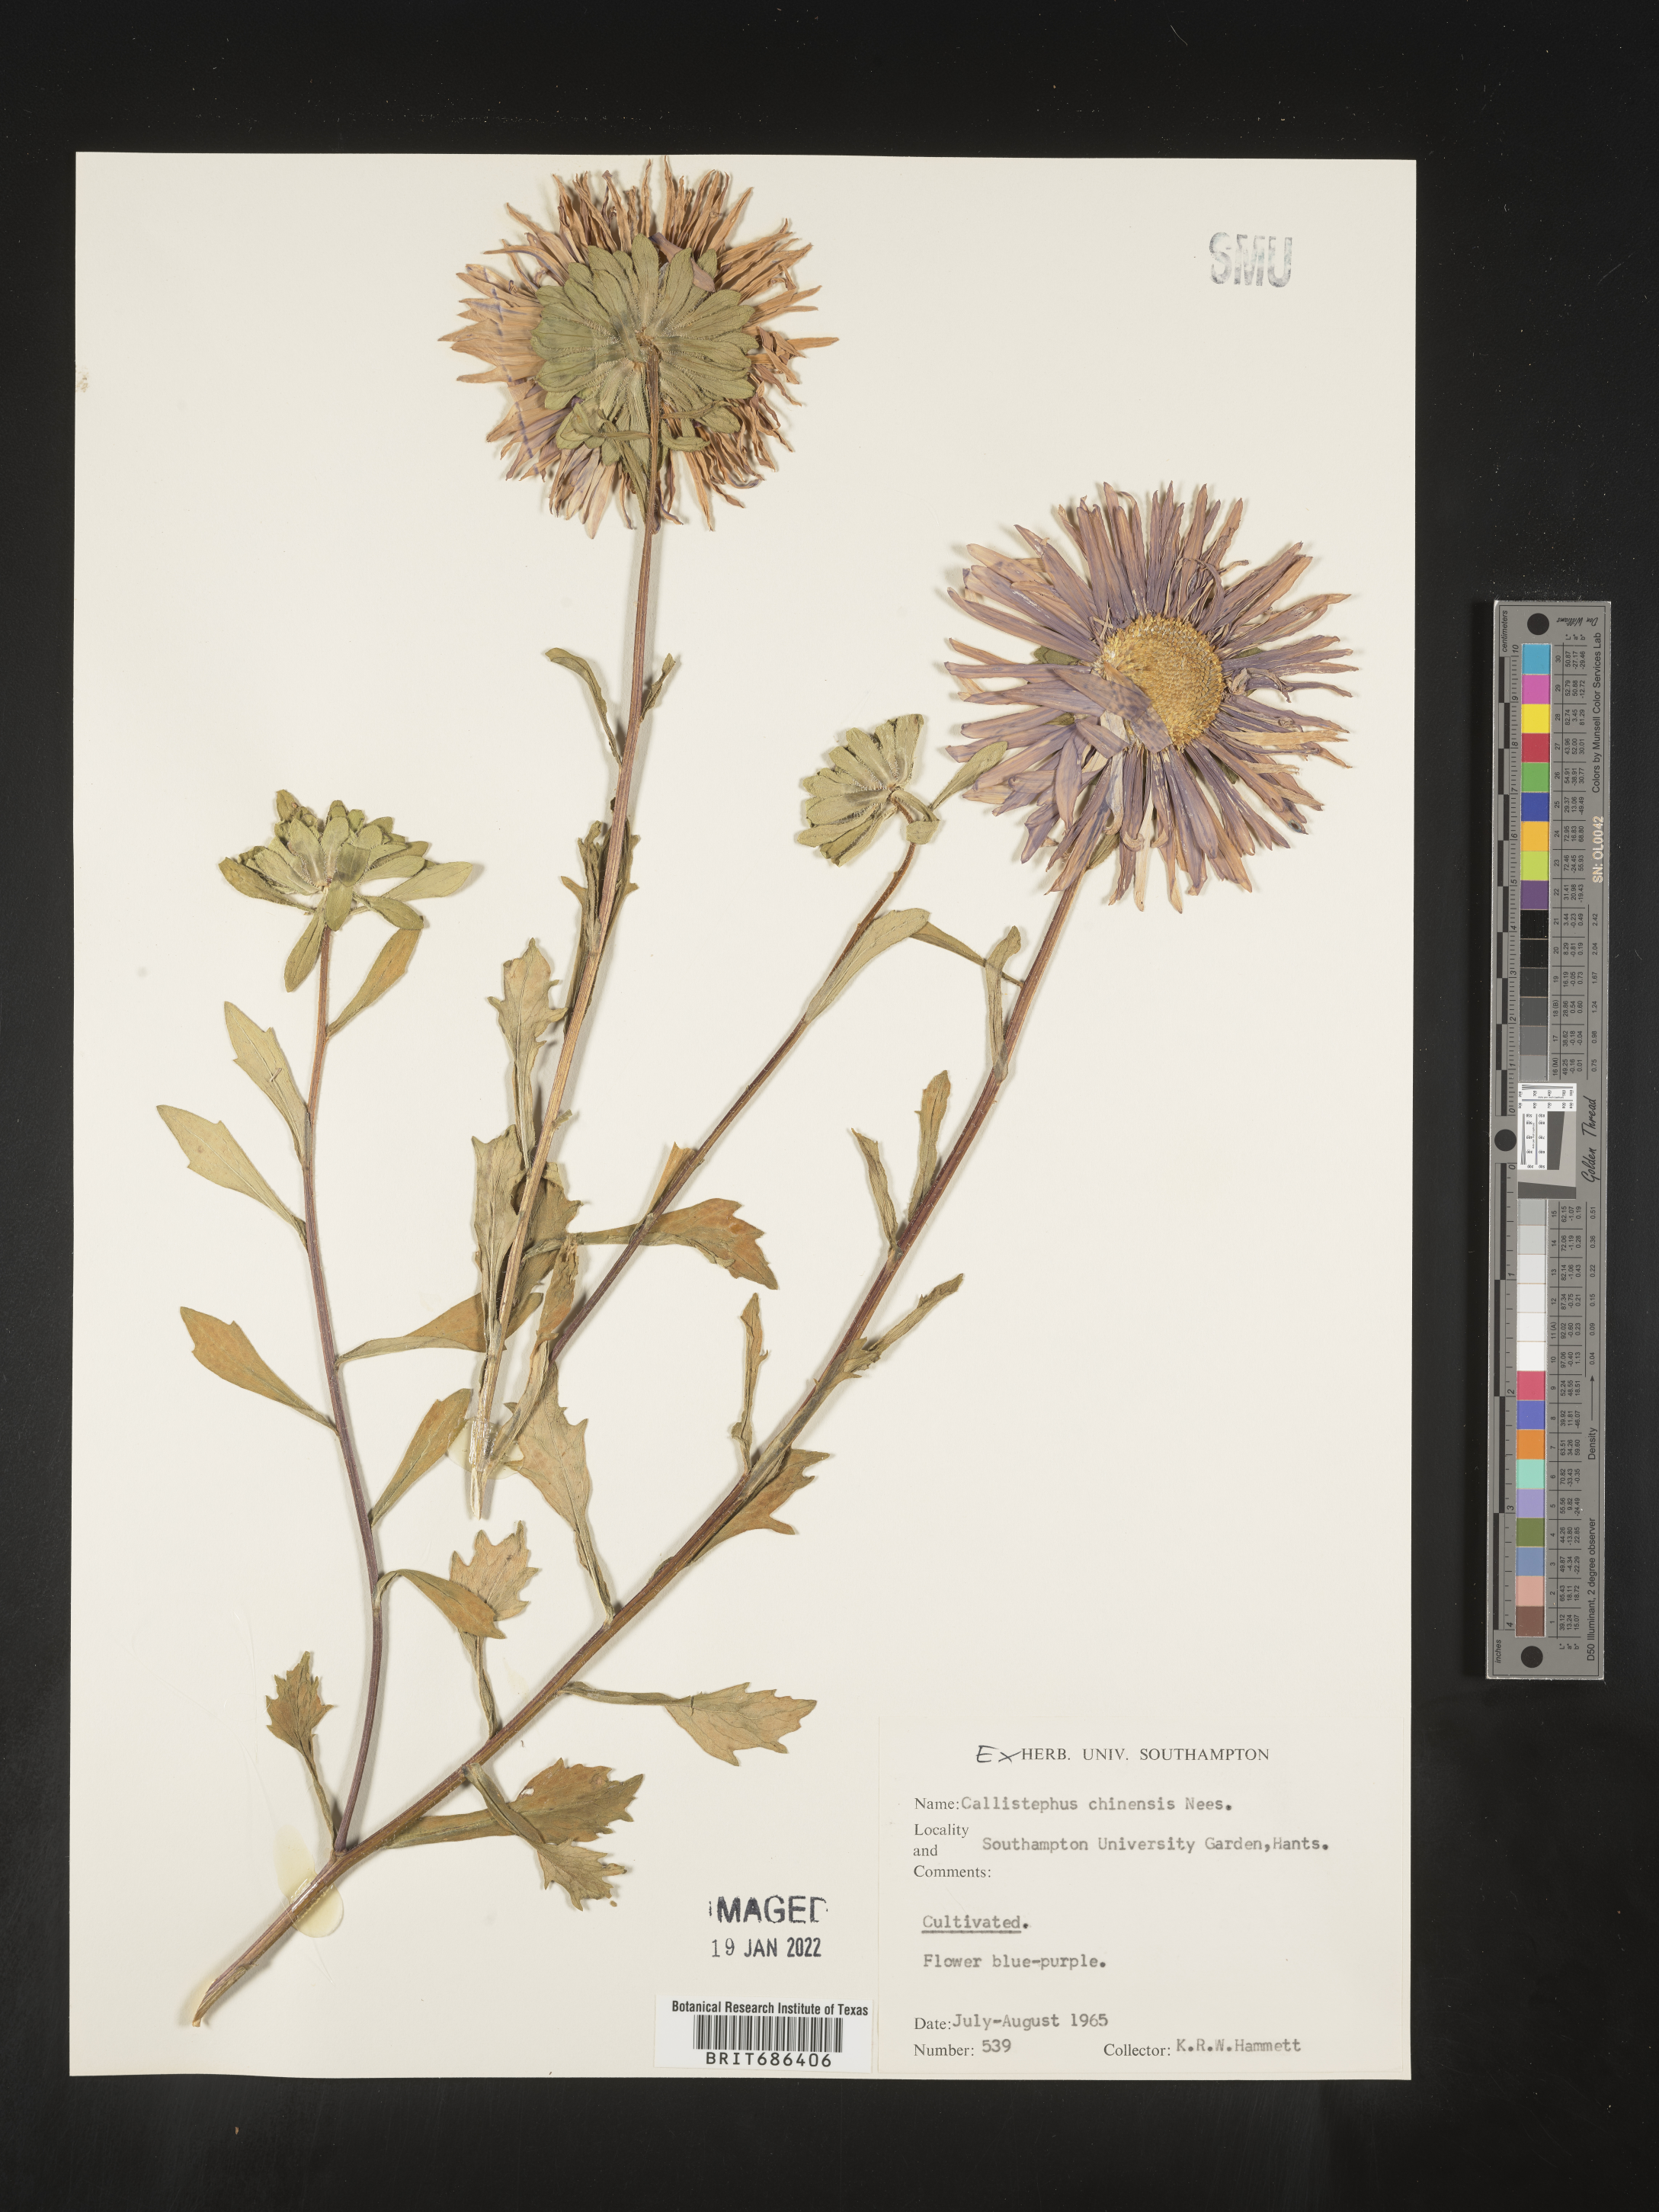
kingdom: Plantae
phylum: Tracheophyta
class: Magnoliopsida
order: Asterales
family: Asteraceae
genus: Callistephus
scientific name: Callistephus
